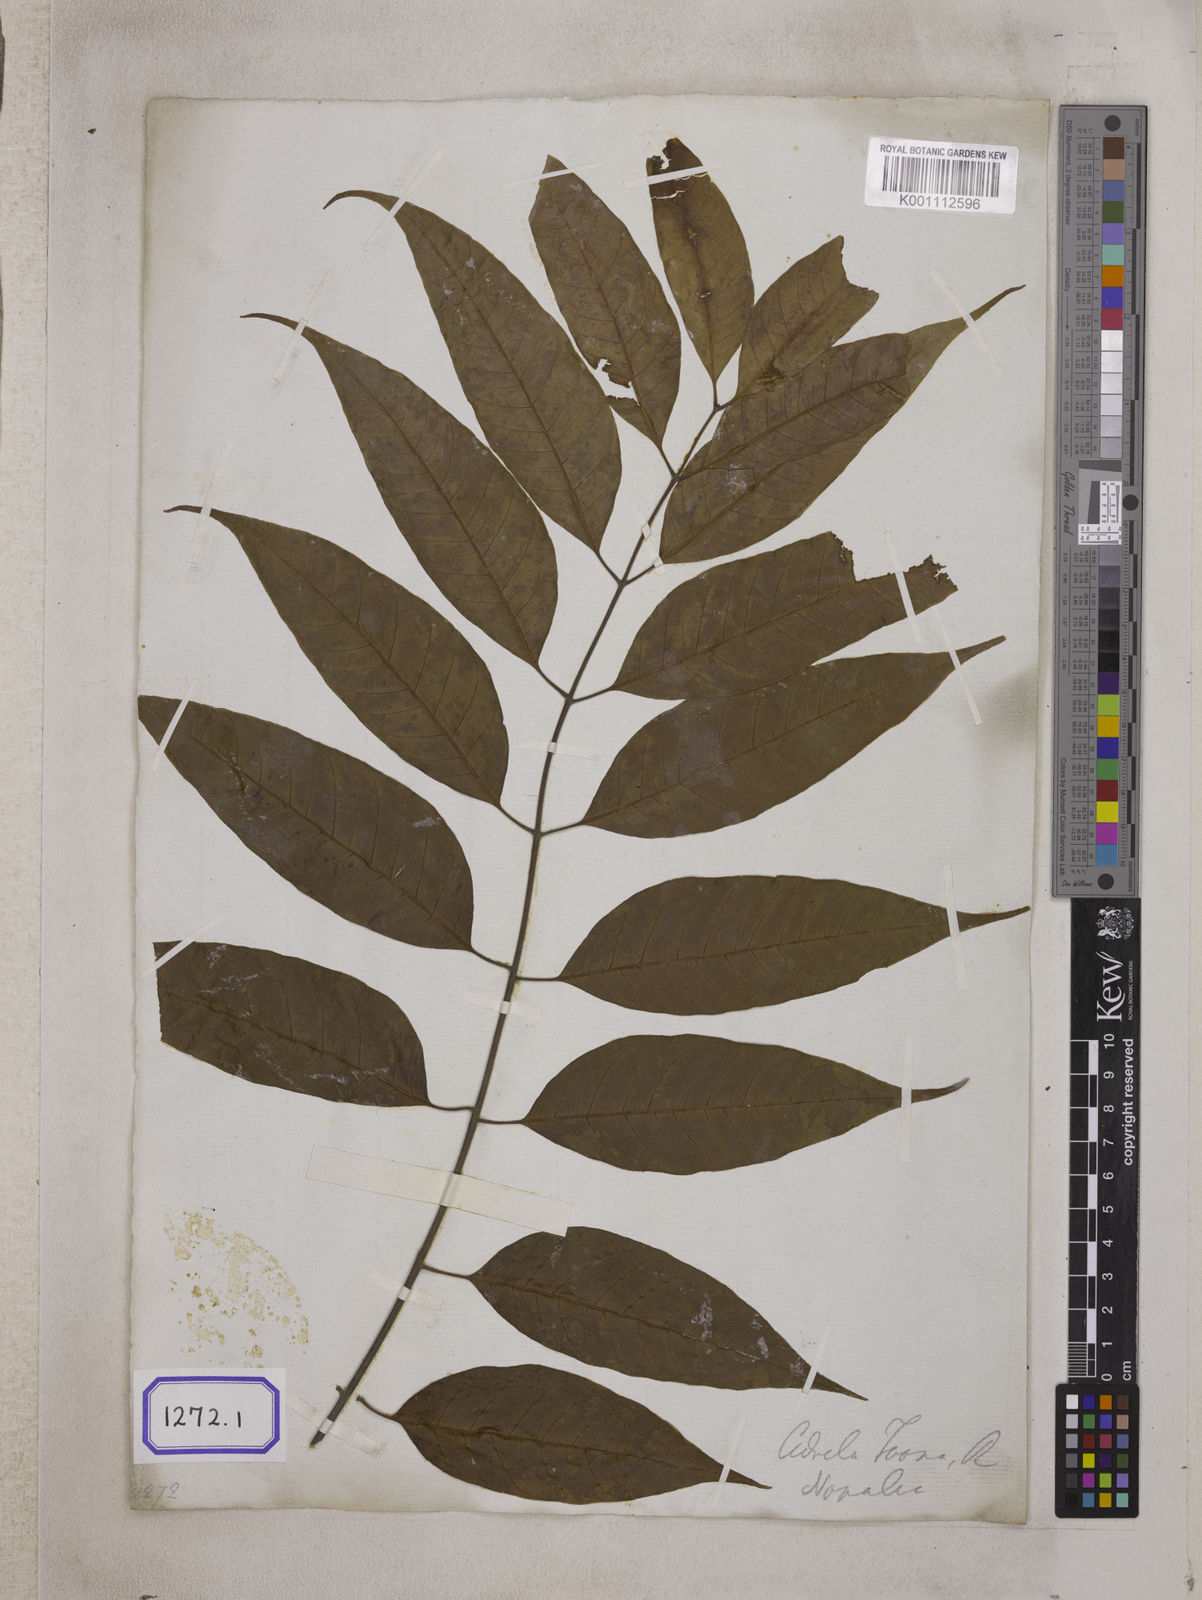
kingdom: Plantae
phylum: Tracheophyta
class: Magnoliopsida
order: Sapindales
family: Meliaceae
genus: Cedrela
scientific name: Cedrela
